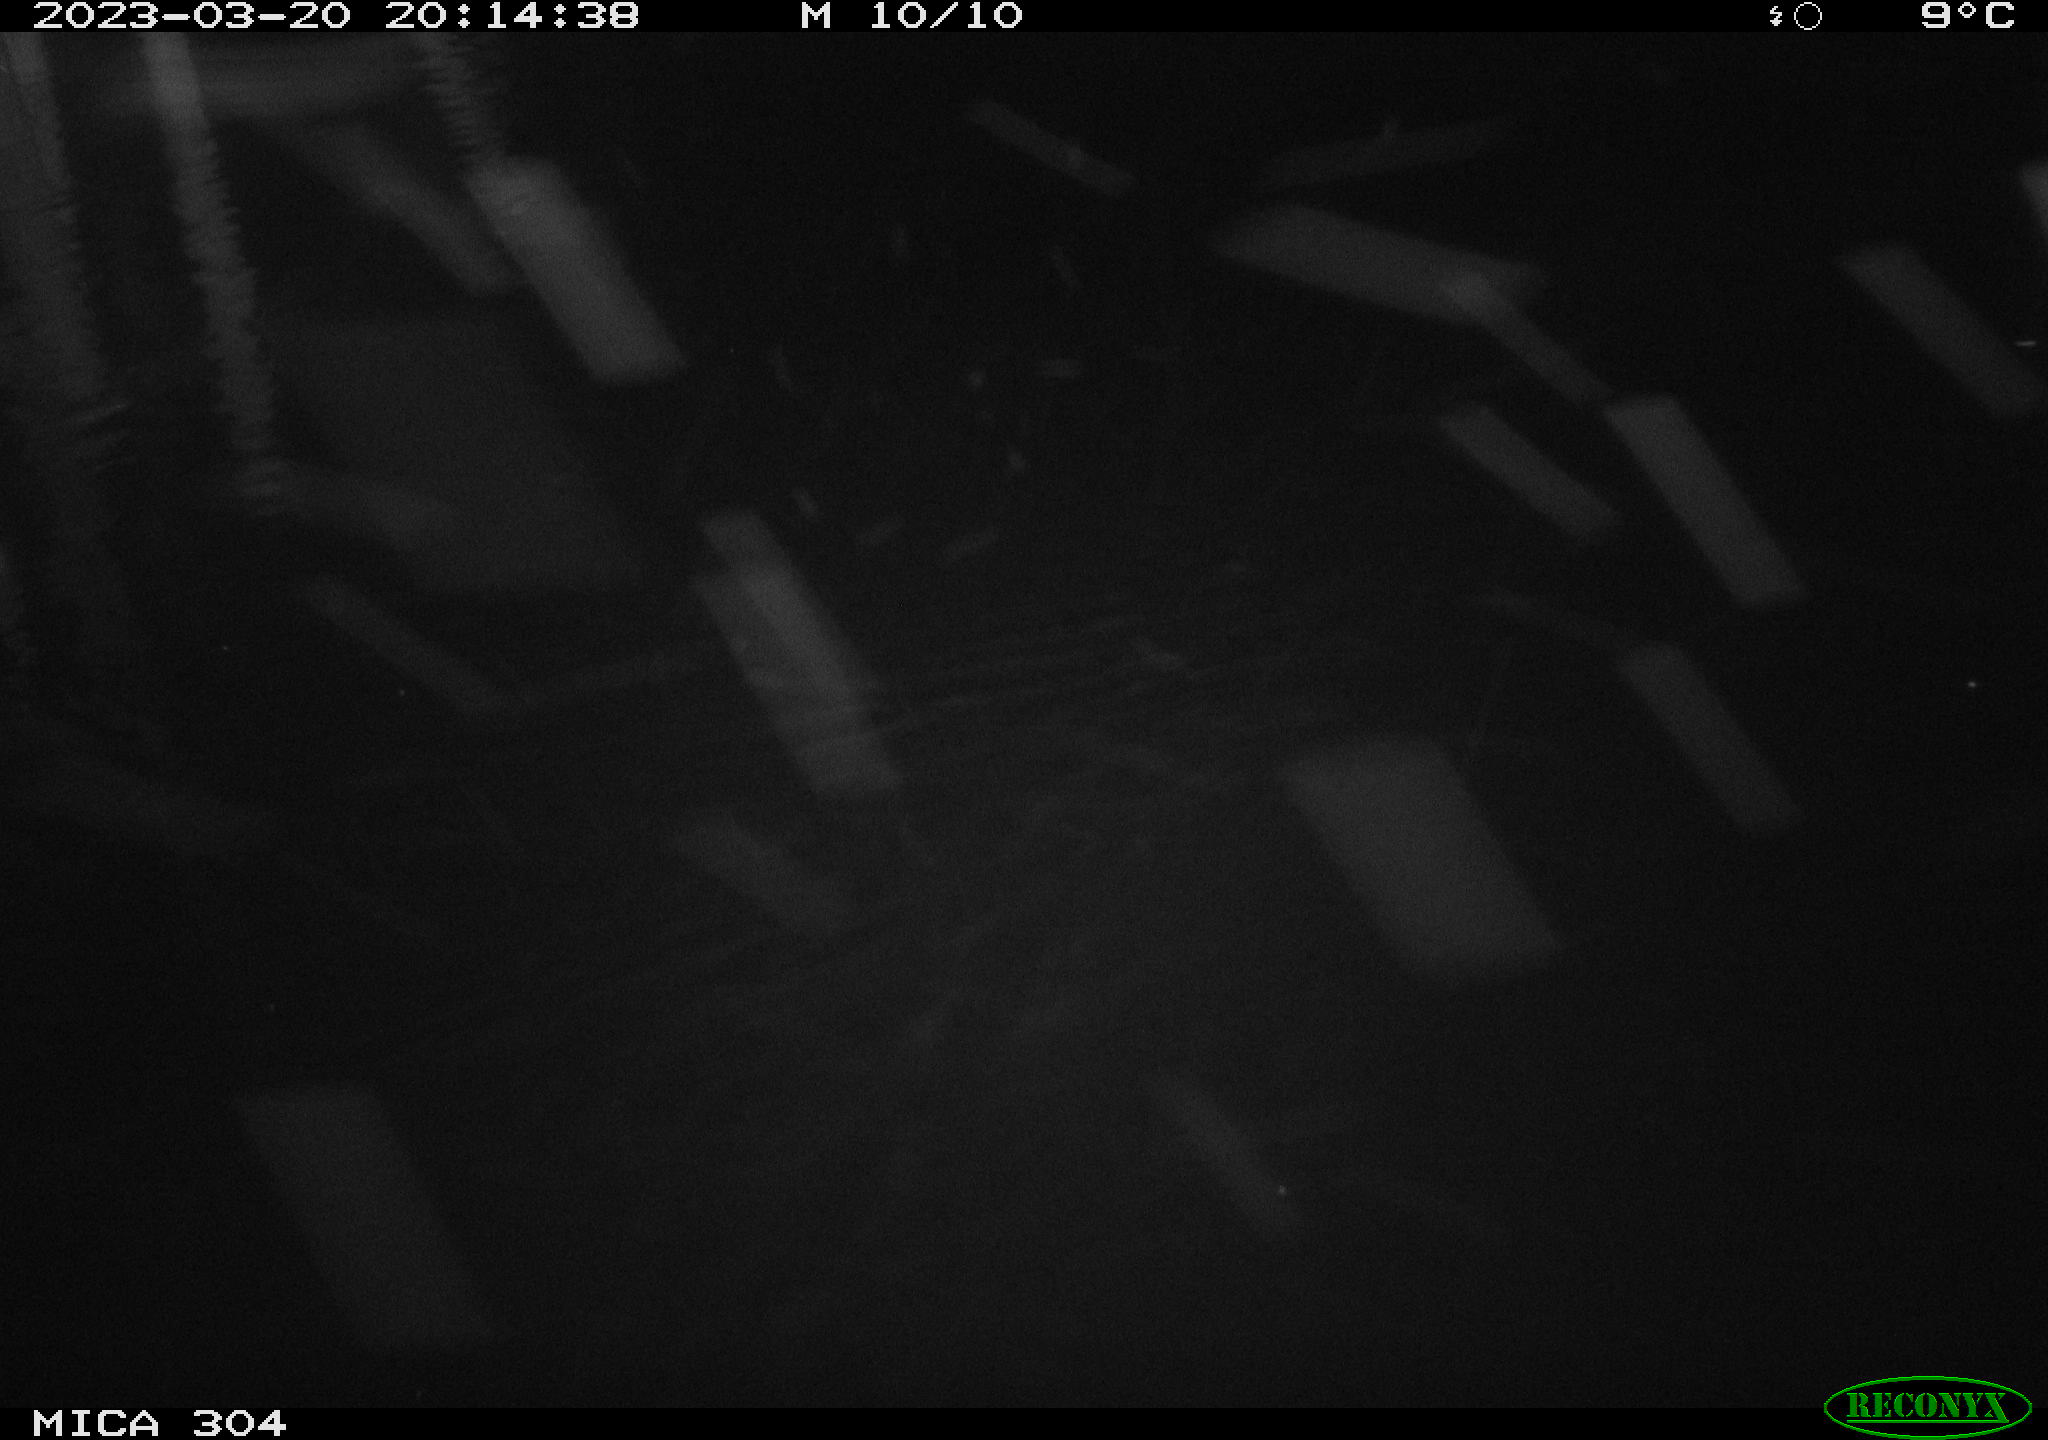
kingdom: Animalia
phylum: Chordata
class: Mammalia
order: Rodentia
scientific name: Rodentia
